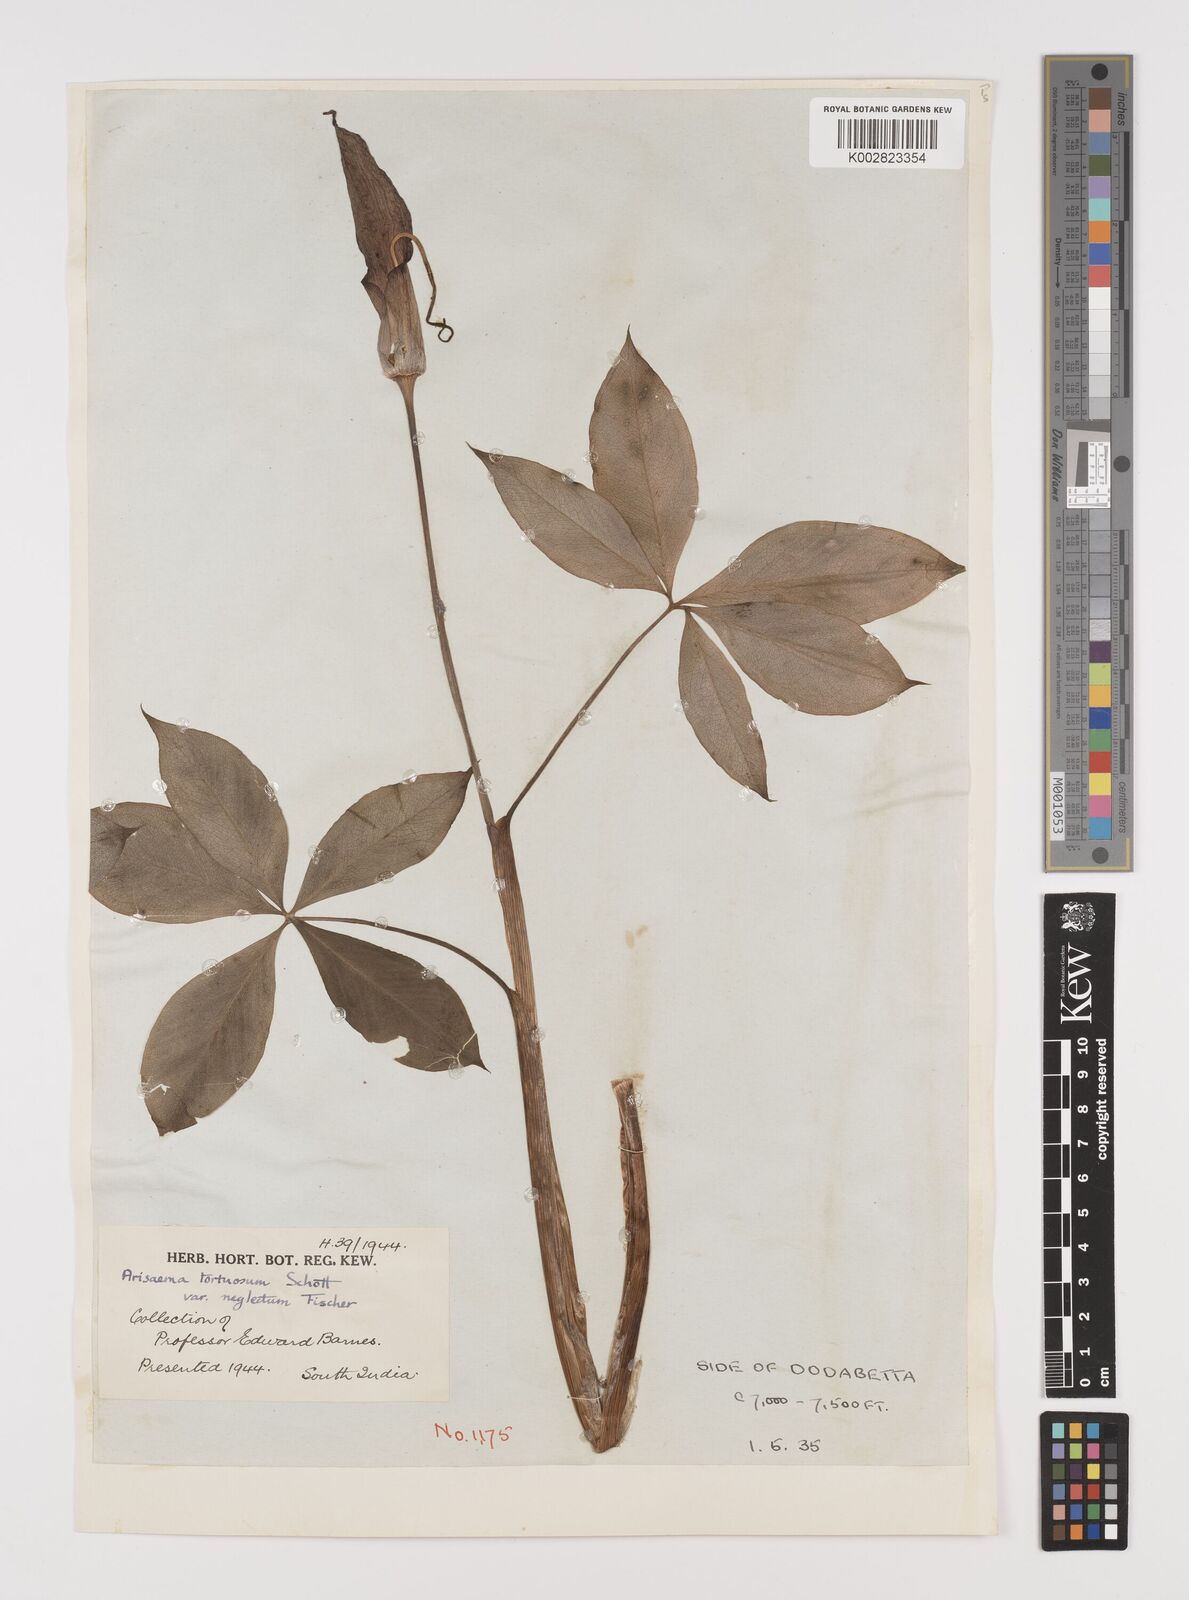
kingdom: Plantae
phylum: Tracheophyta
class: Liliopsida
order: Alismatales
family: Araceae
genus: Arisaema
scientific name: Arisaema tortuosum
